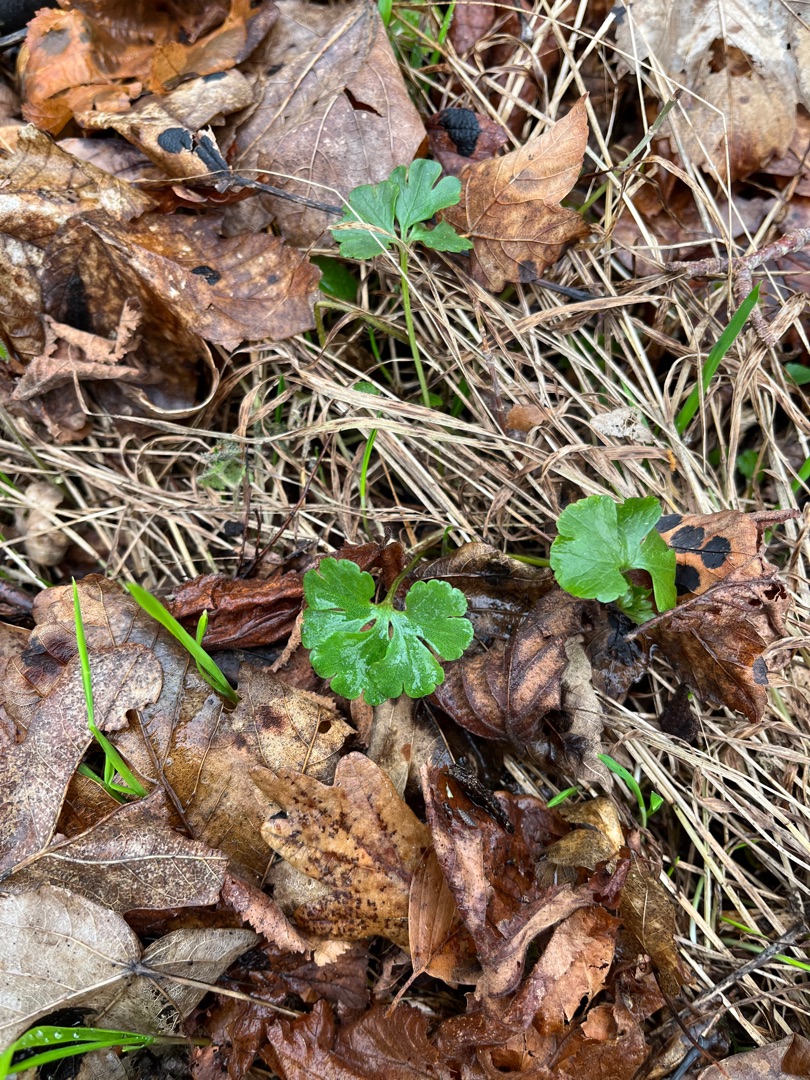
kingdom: Plantae
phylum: Tracheophyta
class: Magnoliopsida
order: Ranunculales
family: Ranunculaceae
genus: Ranunculus
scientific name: Ranunculus auricomus
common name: Nyrebladet ranunkel
